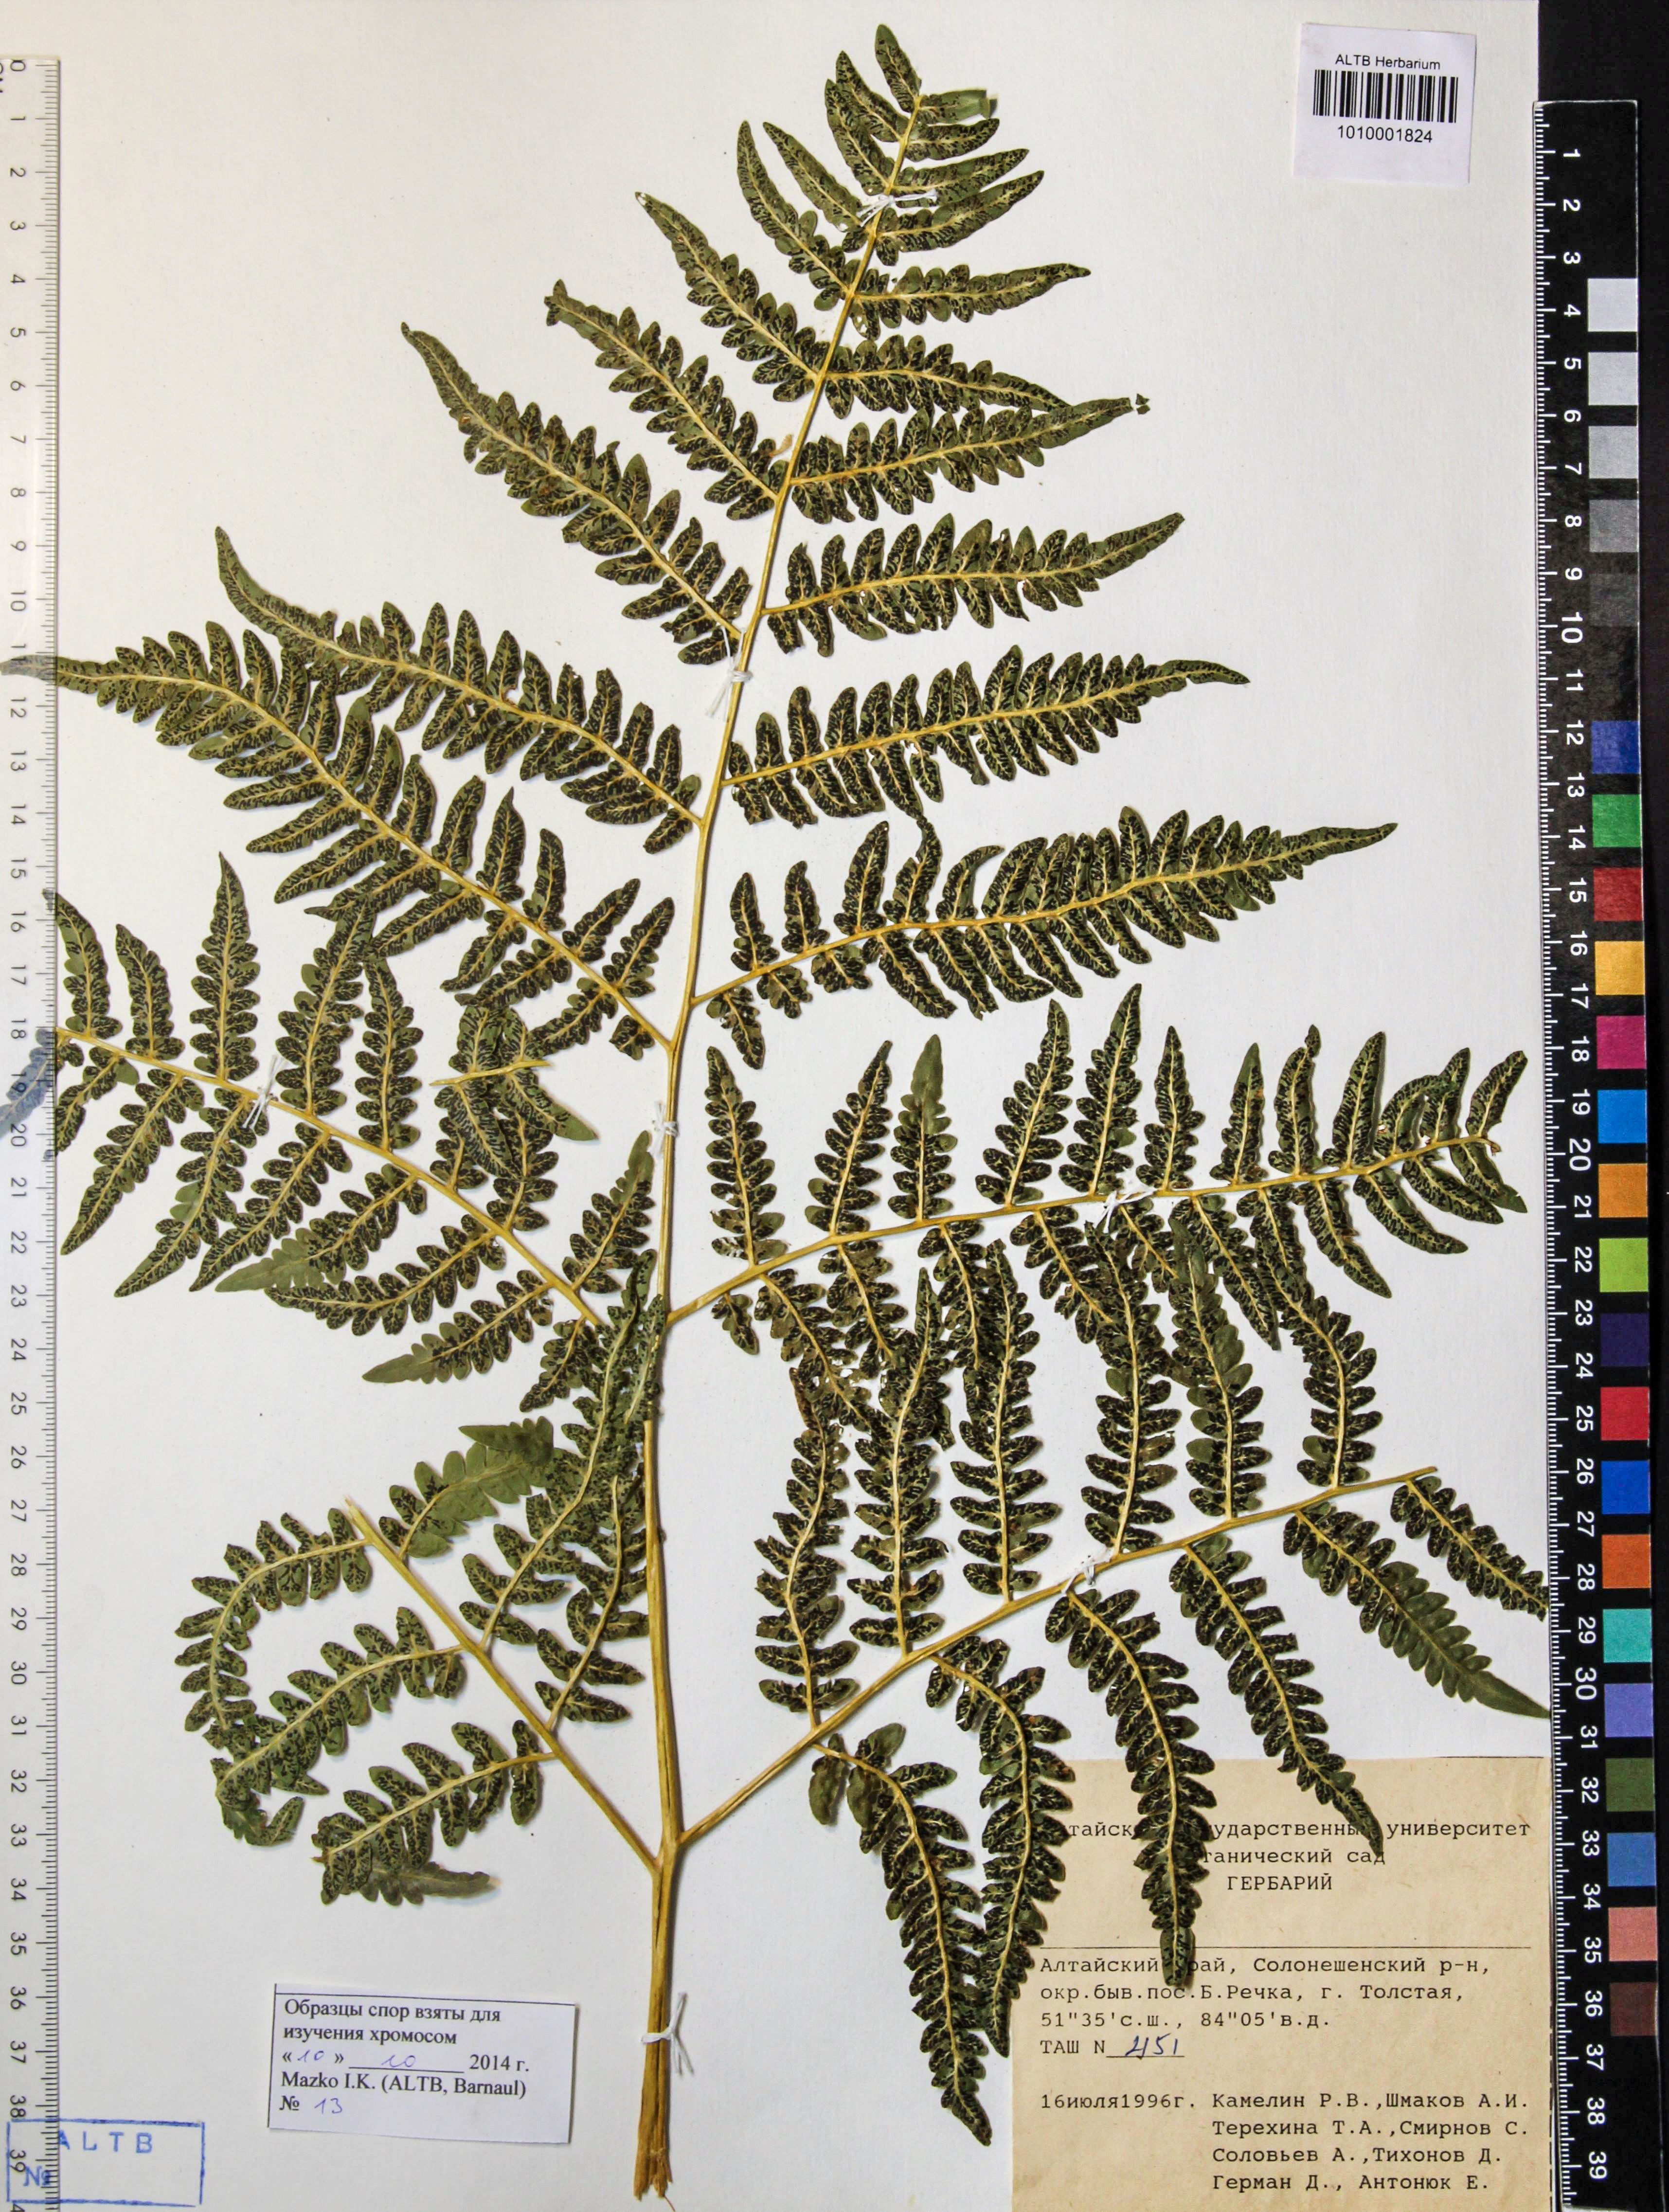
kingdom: Plantae
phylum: Tracheophyta
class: Polypodiopsida
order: Polypodiales
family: Dennstaedtiaceae
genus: Pteridium
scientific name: Pteridium aquilinum
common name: Bracken
